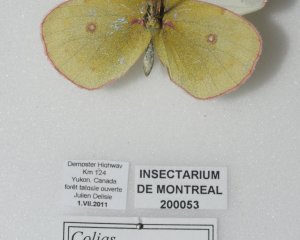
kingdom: Animalia
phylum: Arthropoda
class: Insecta
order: Lepidoptera
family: Pieridae
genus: Colias
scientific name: Colias pelidne
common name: Pelidne Sulphur
